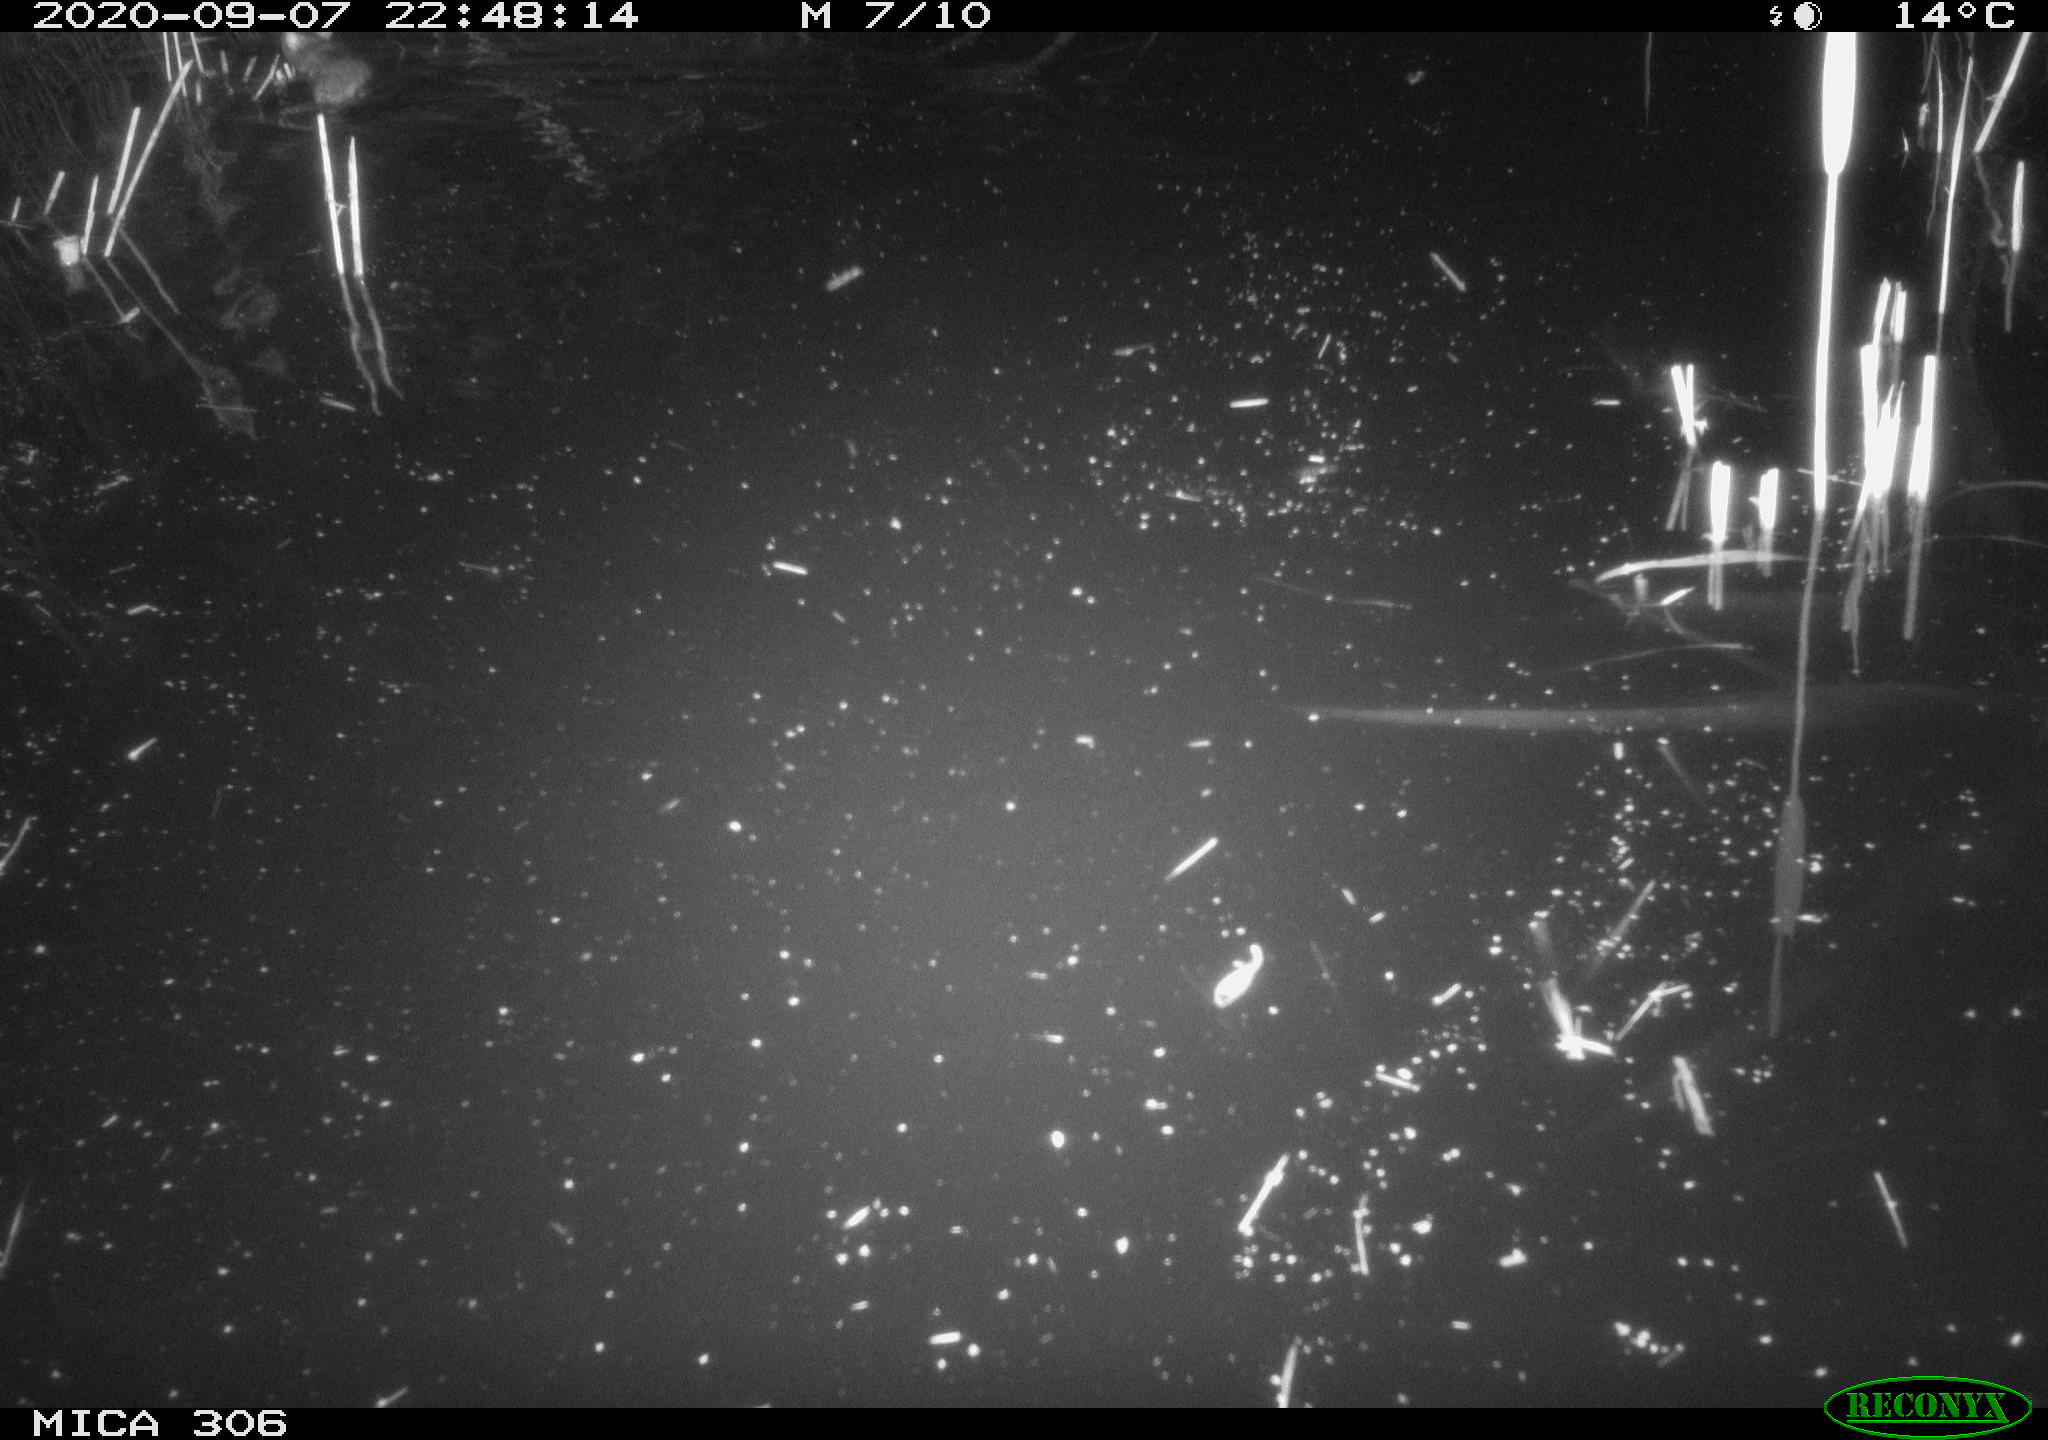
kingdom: Animalia
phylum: Chordata
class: Mammalia
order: Rodentia
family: Muridae
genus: Rattus
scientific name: Rattus norvegicus
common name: Brown rat
